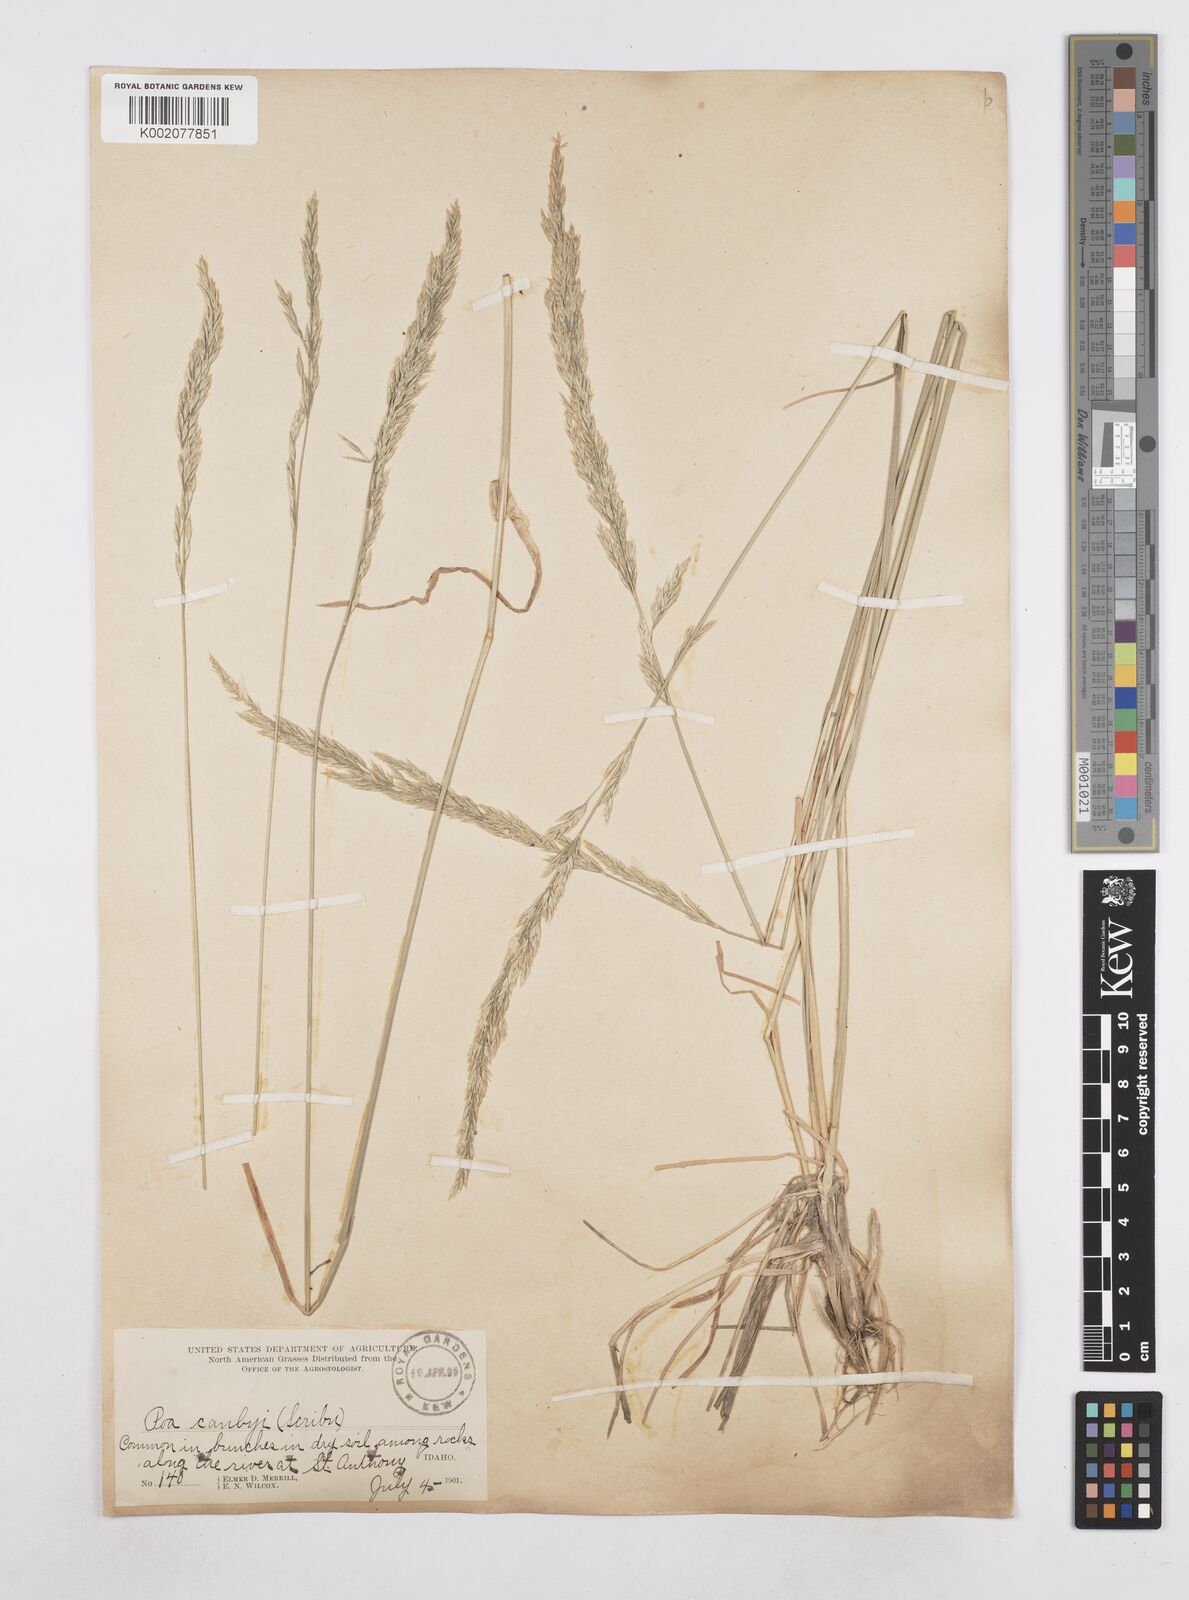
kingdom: Plantae
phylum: Tracheophyta
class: Liliopsida
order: Poales
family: Poaceae
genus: Poa
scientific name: Poa secunda
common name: Sandberg bluegrass
